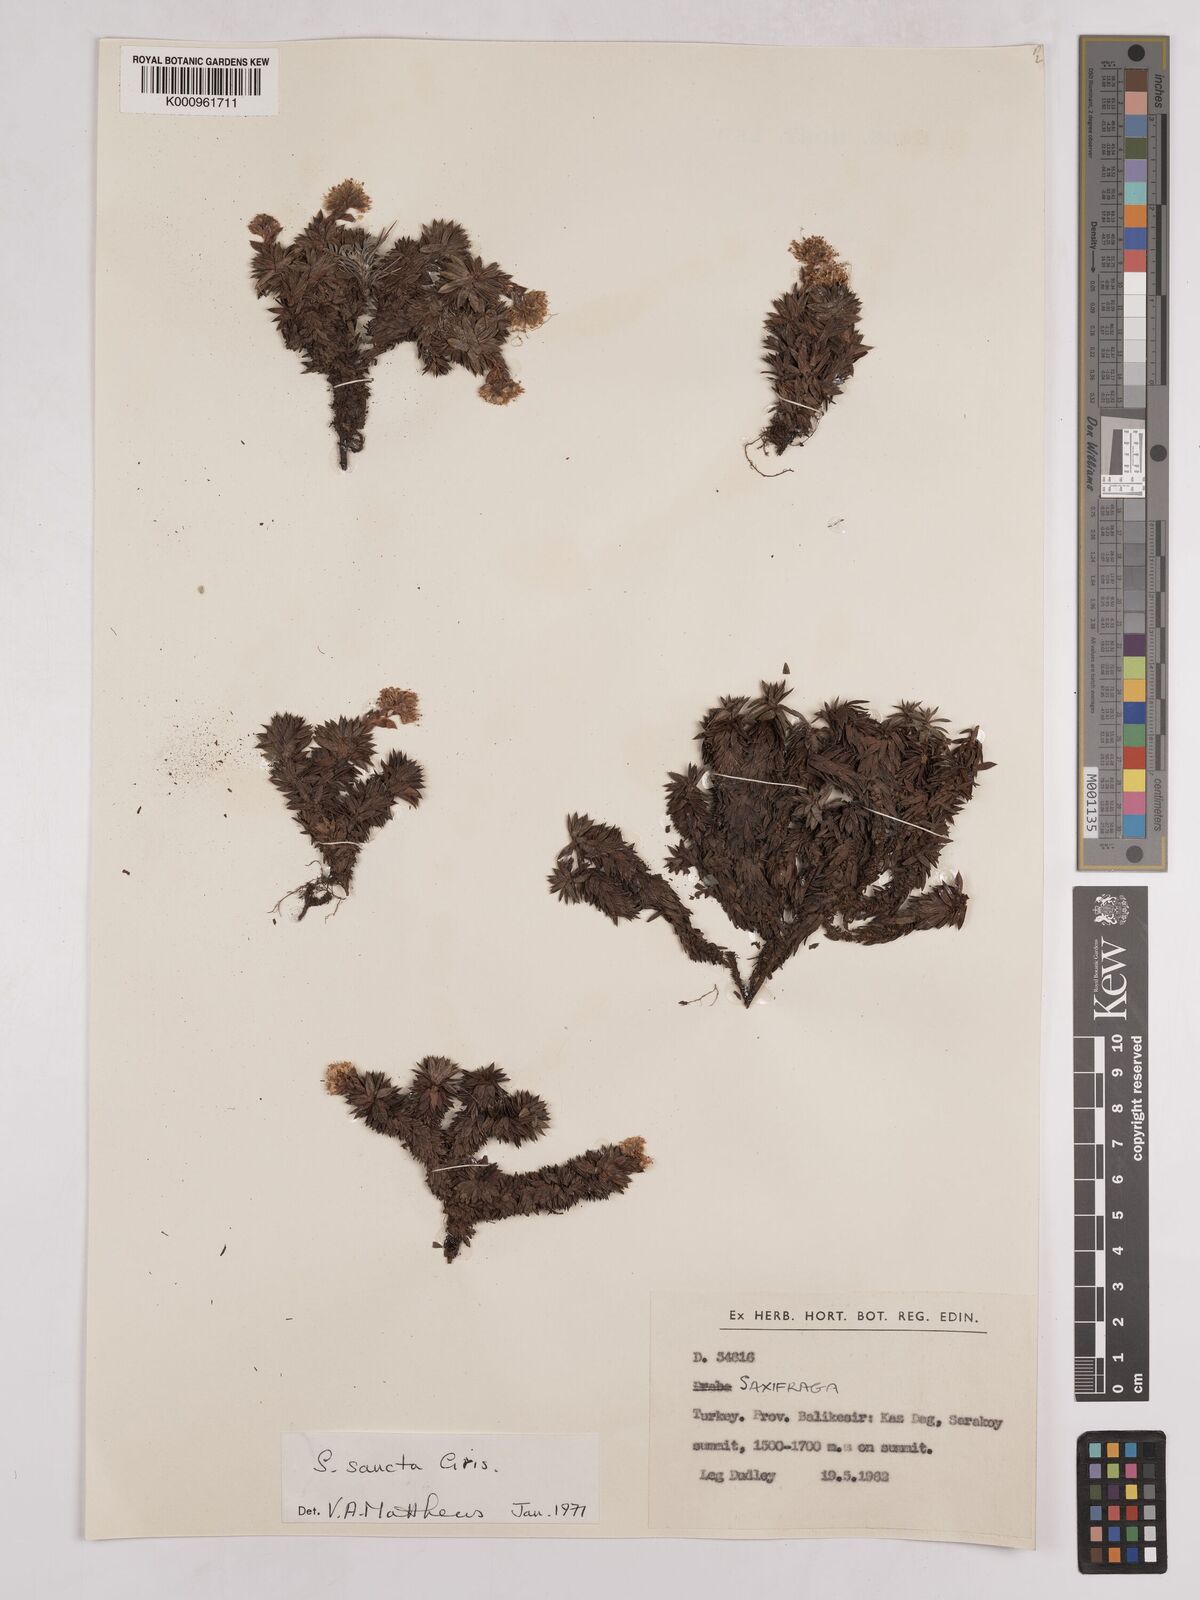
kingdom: Plantae
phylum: Tracheophyta
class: Magnoliopsida
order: Saxifragales
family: Saxifragaceae
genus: Saxifraga
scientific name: Saxifraga sancta
